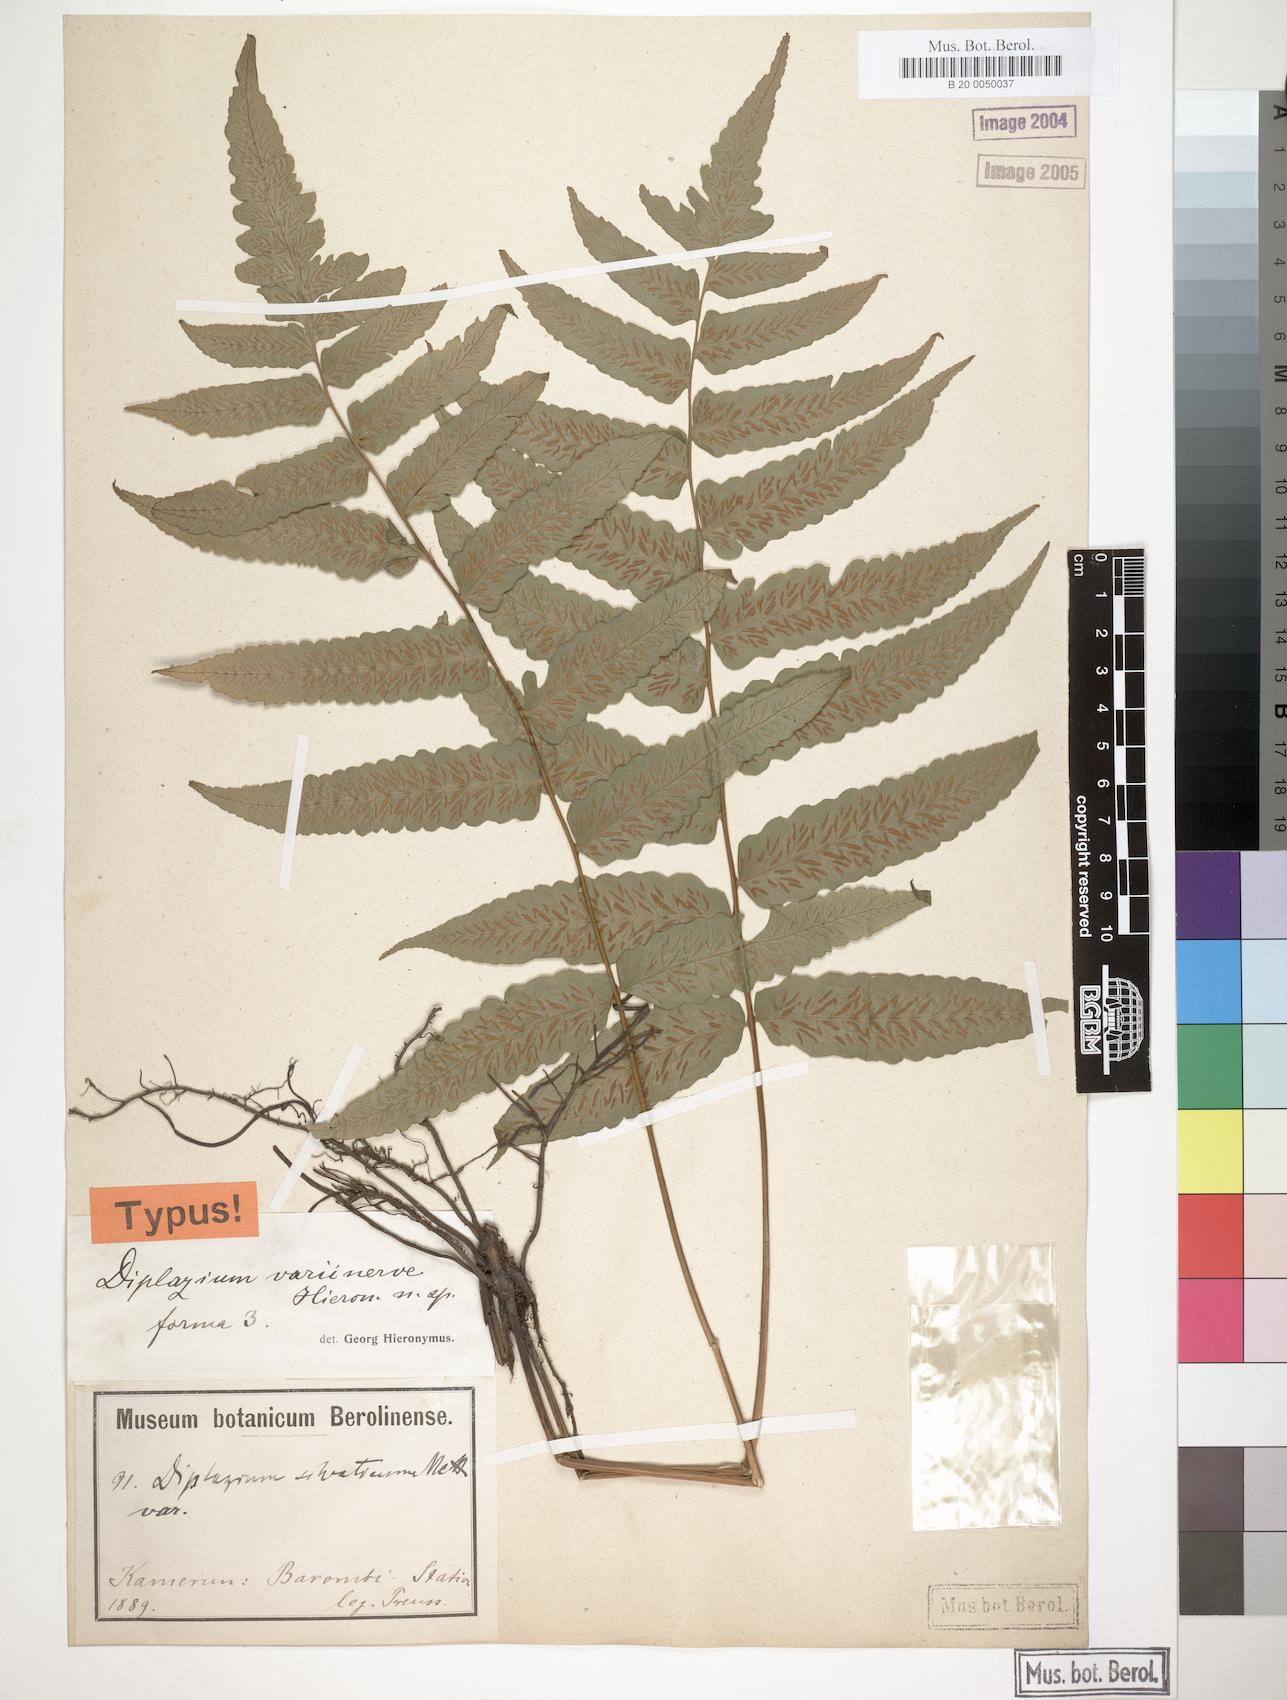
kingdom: Plantae
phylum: Tracheophyta
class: Polypodiopsida
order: Polypodiales
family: Athyriaceae
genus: Diplazium
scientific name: Diplazium welwitschii
